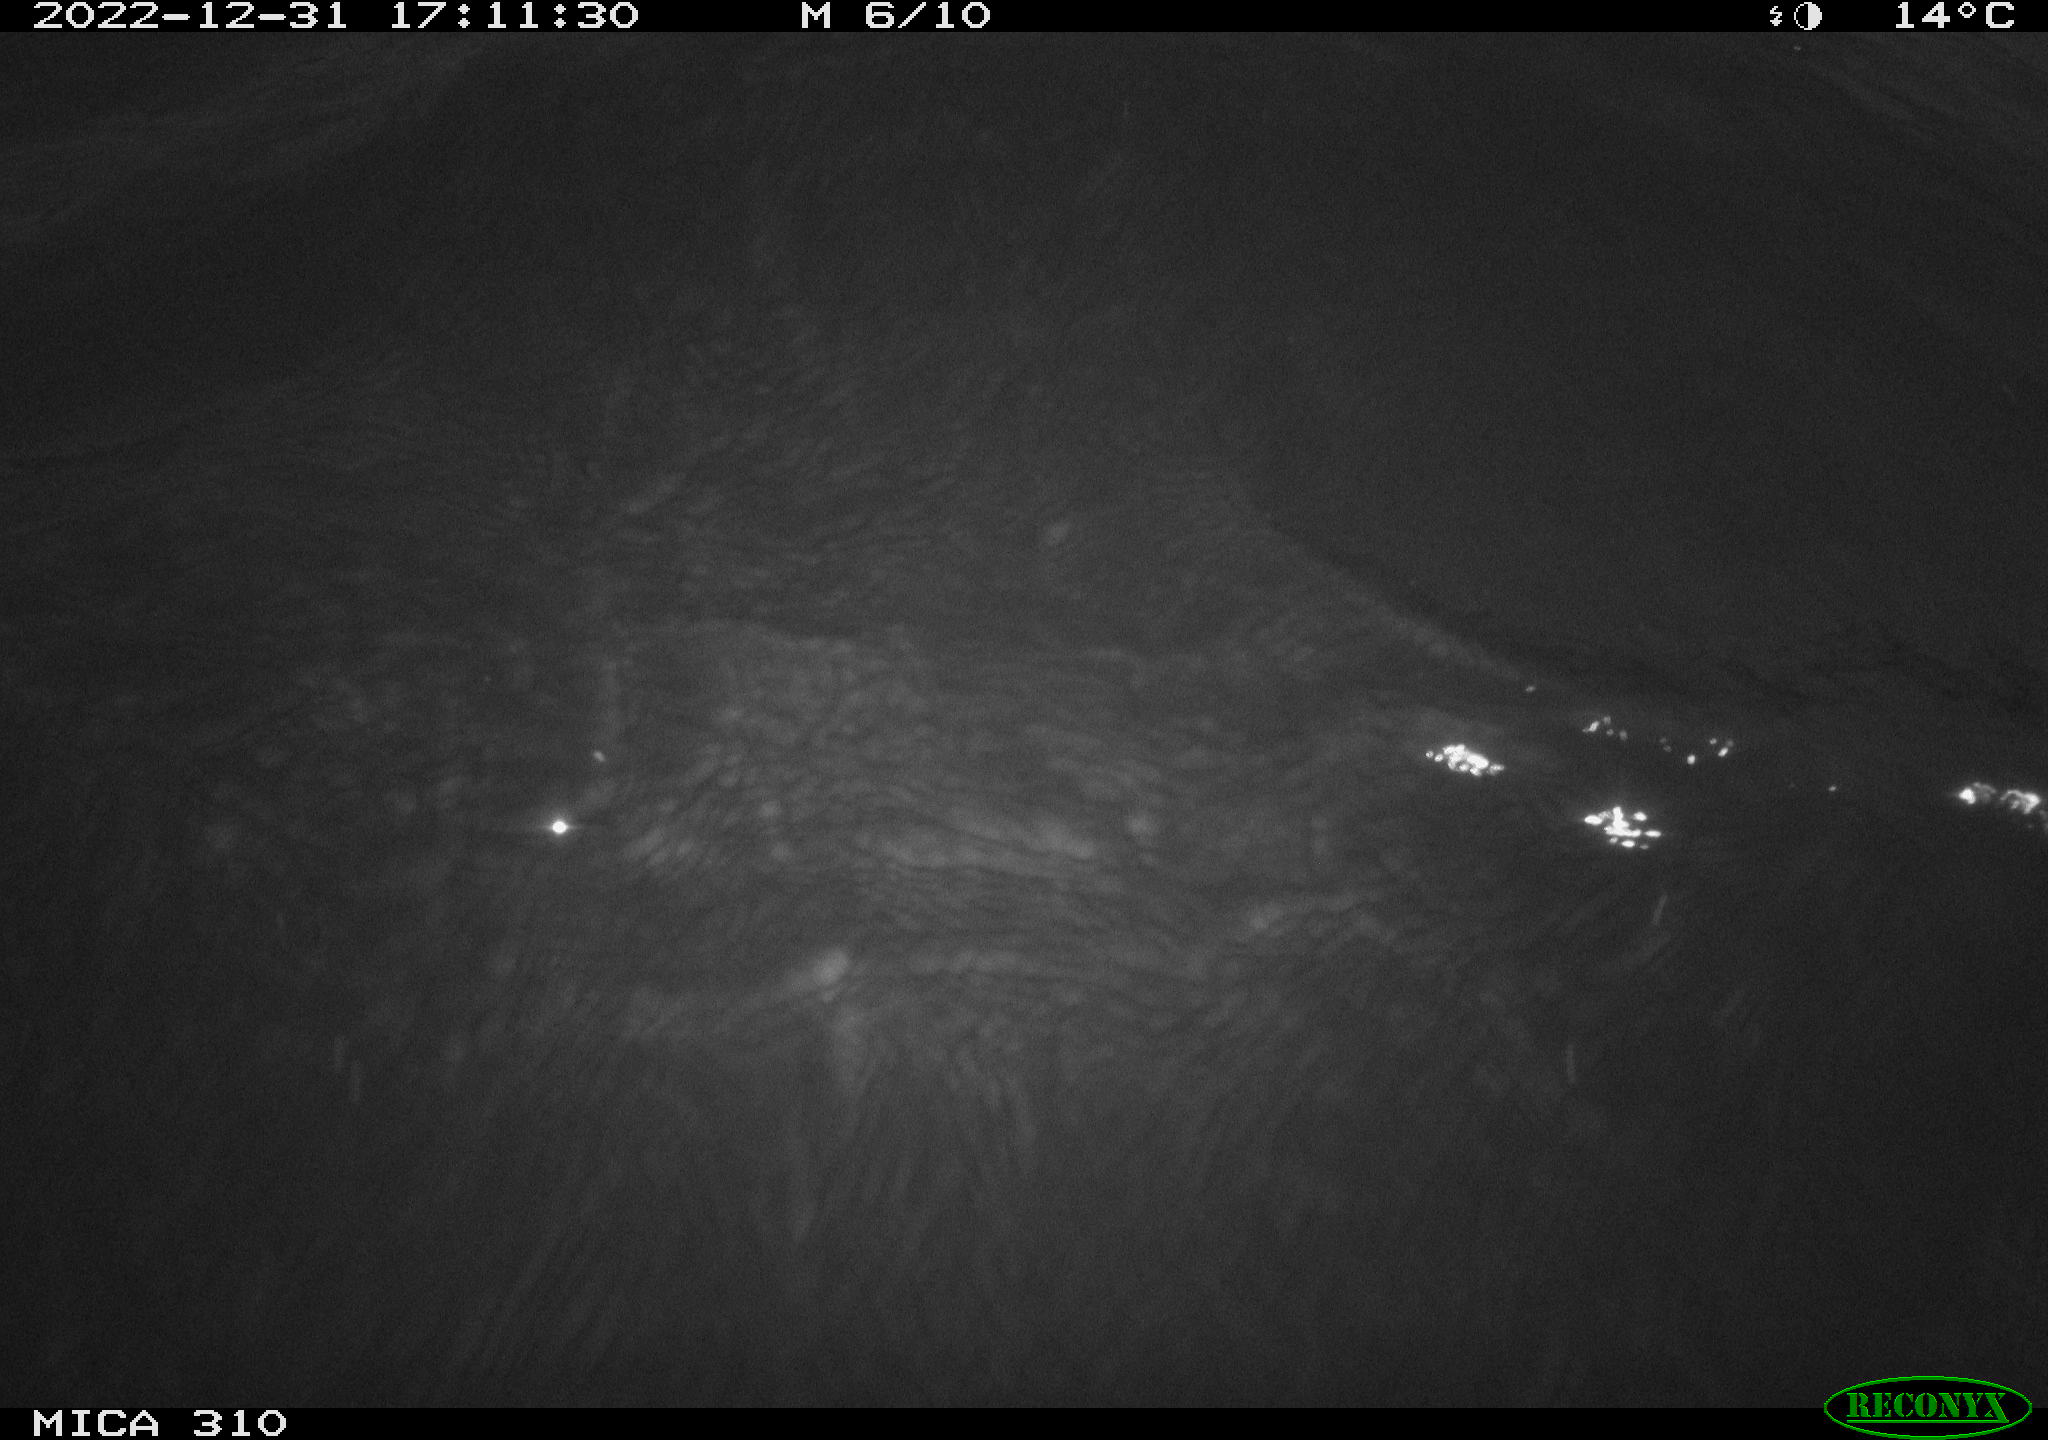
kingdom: Animalia
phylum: Chordata
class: Aves
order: Anseriformes
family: Anatidae
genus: Anas
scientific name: Anas
